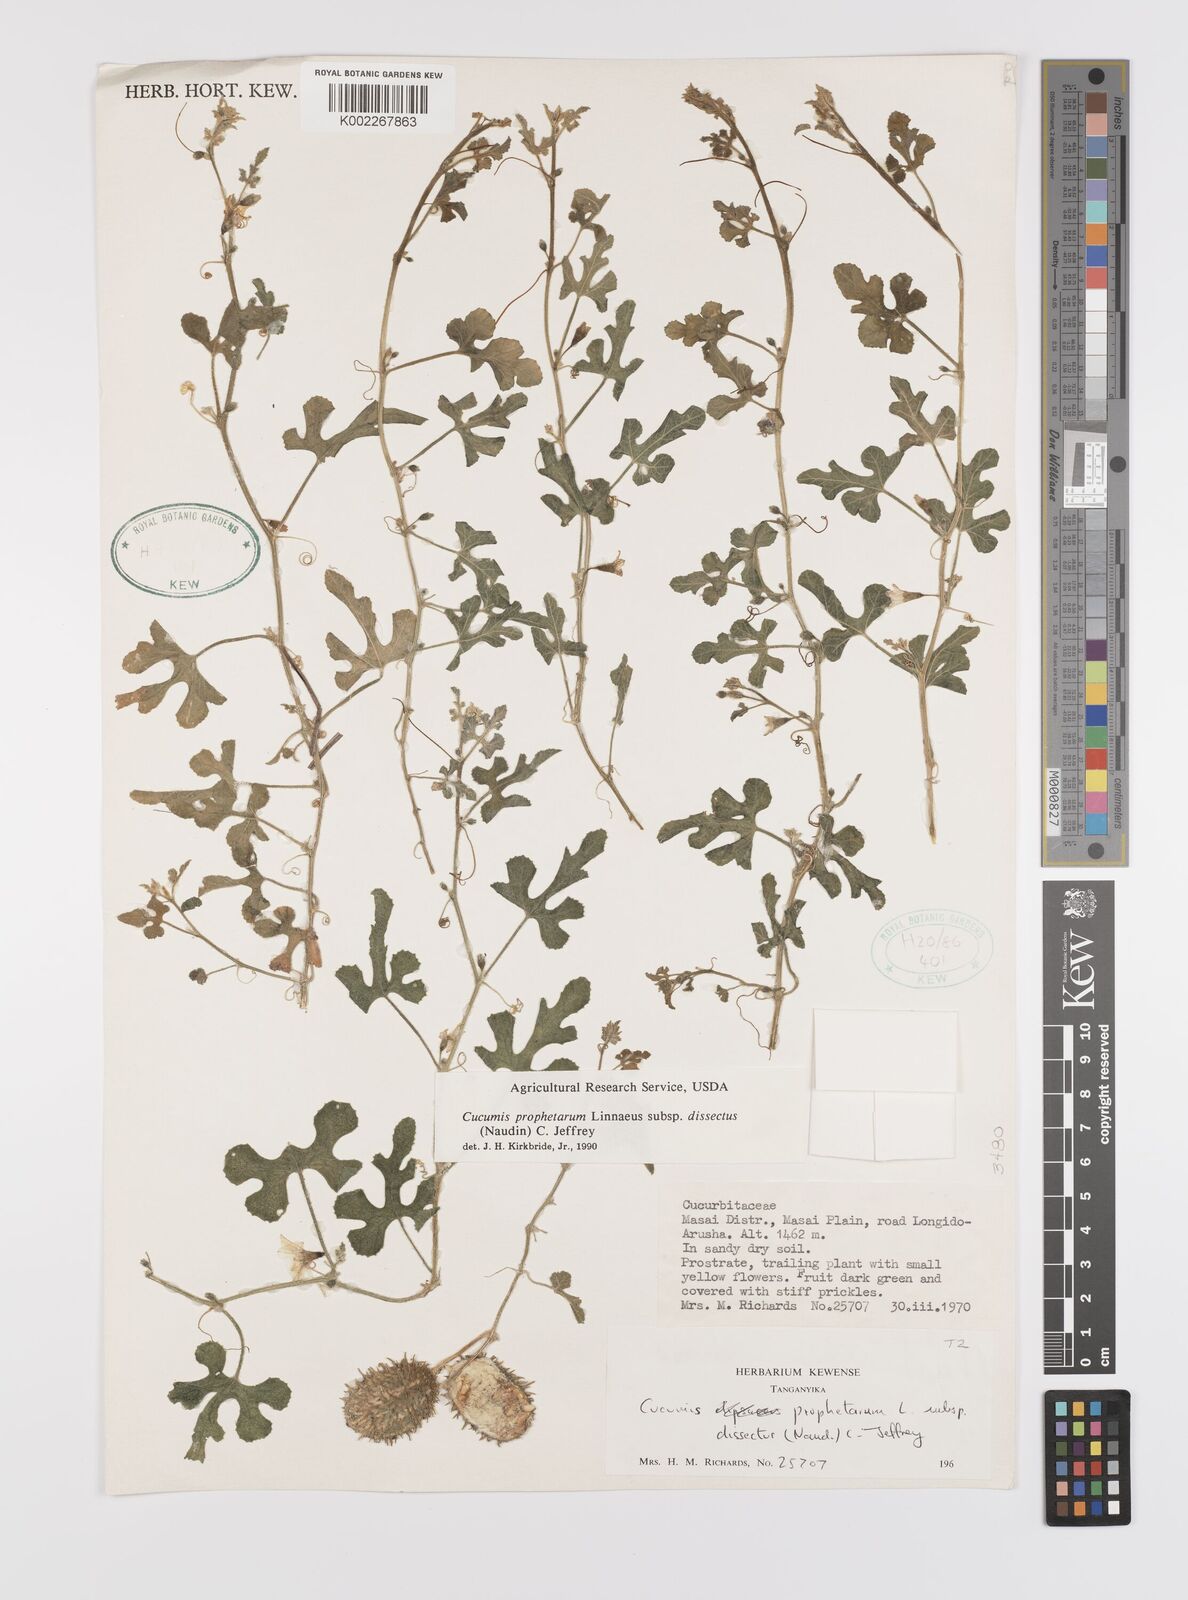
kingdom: Plantae
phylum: Tracheophyta
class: Magnoliopsida
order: Cucurbitales
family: Cucurbitaceae
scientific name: Cucurbitaceae
